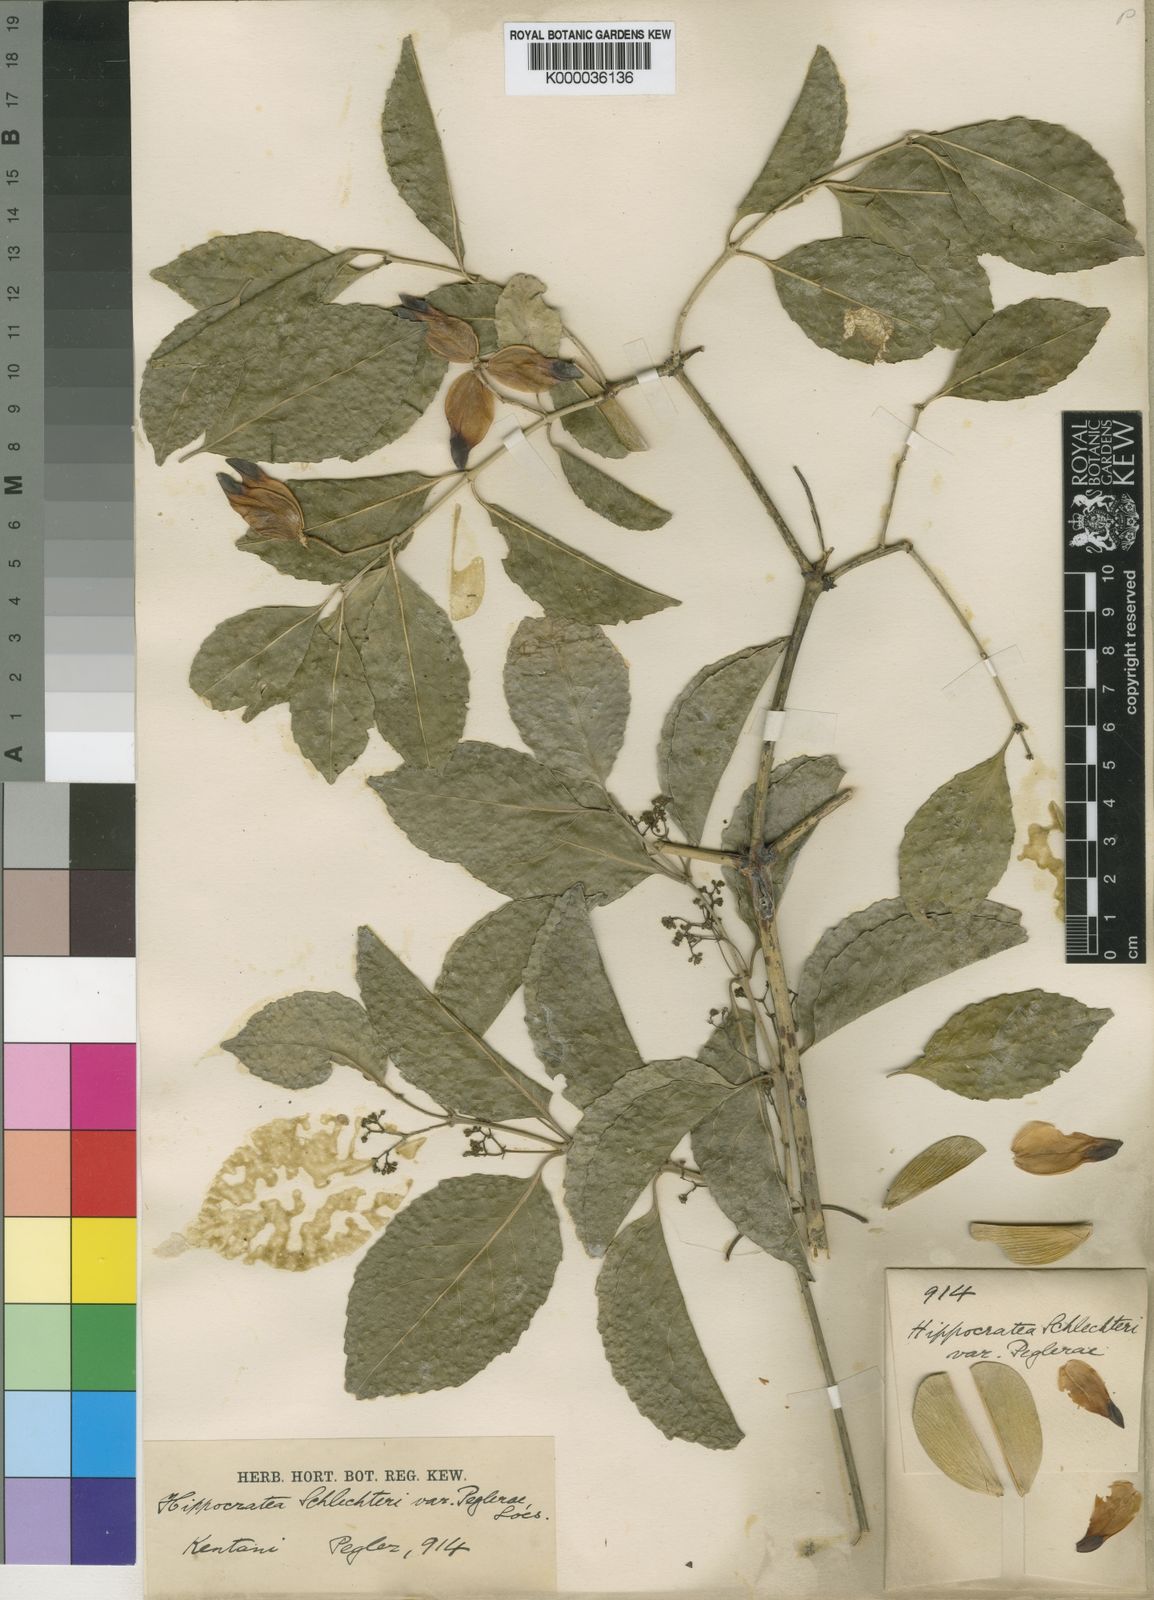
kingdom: Plantae
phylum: Tracheophyta
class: Magnoliopsida
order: Celastrales
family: Celastraceae
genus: Hippocratea
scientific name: Hippocratea
